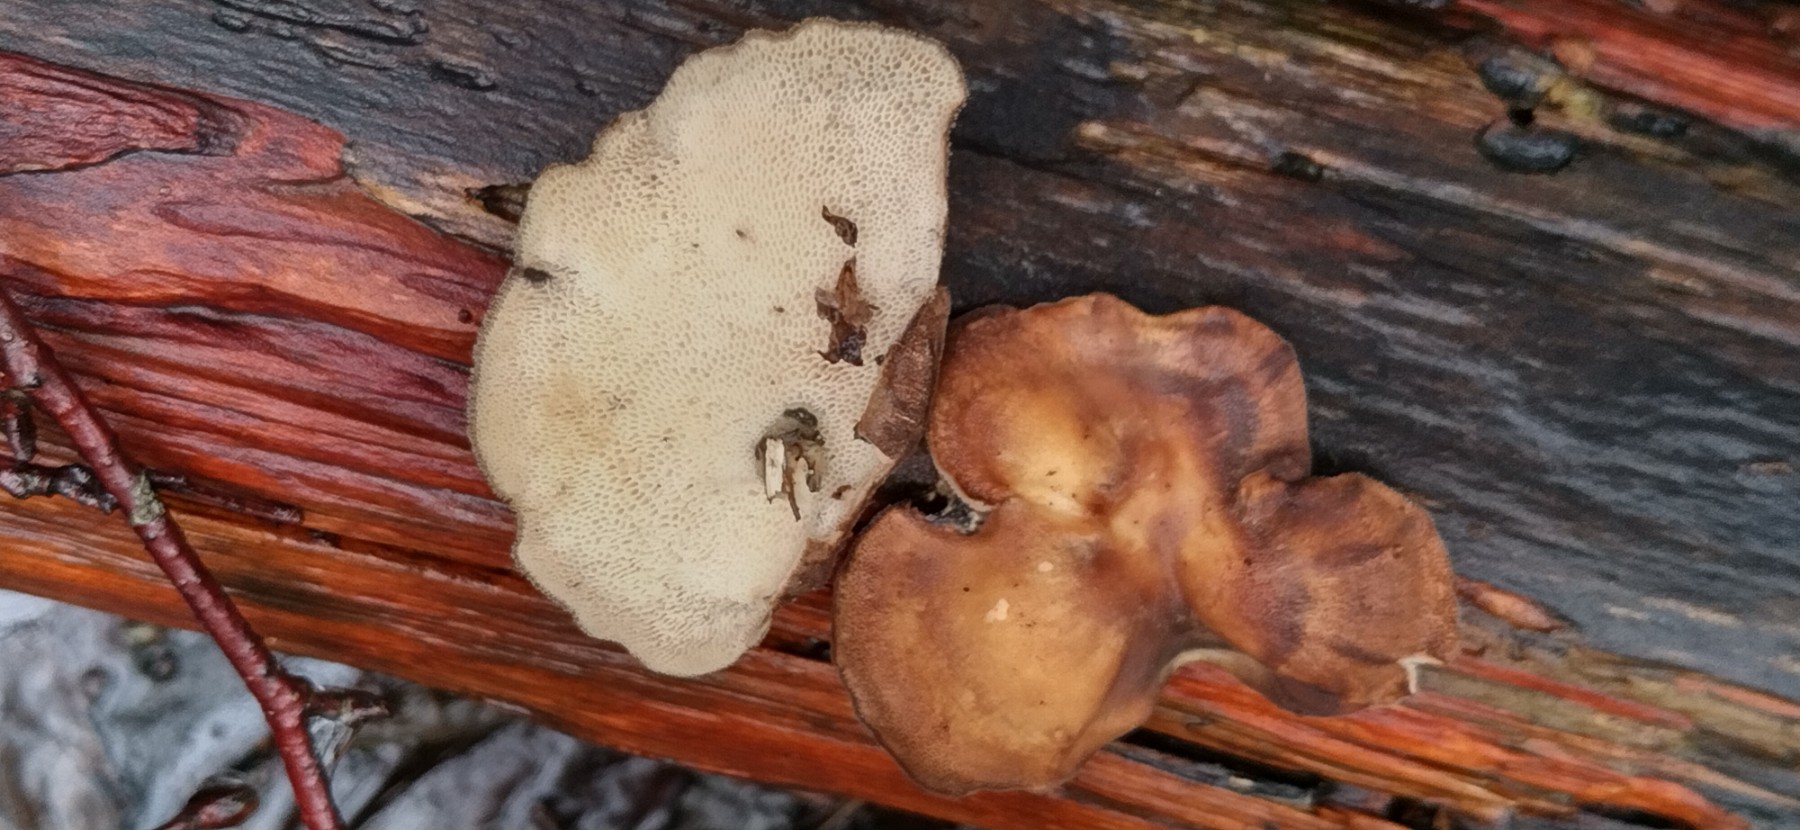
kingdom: Fungi
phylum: Basidiomycota
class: Agaricomycetes
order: Polyporales
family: Polyporaceae
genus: Lentinus
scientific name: Lentinus brumalis
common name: vinter-stilkporesvamp
